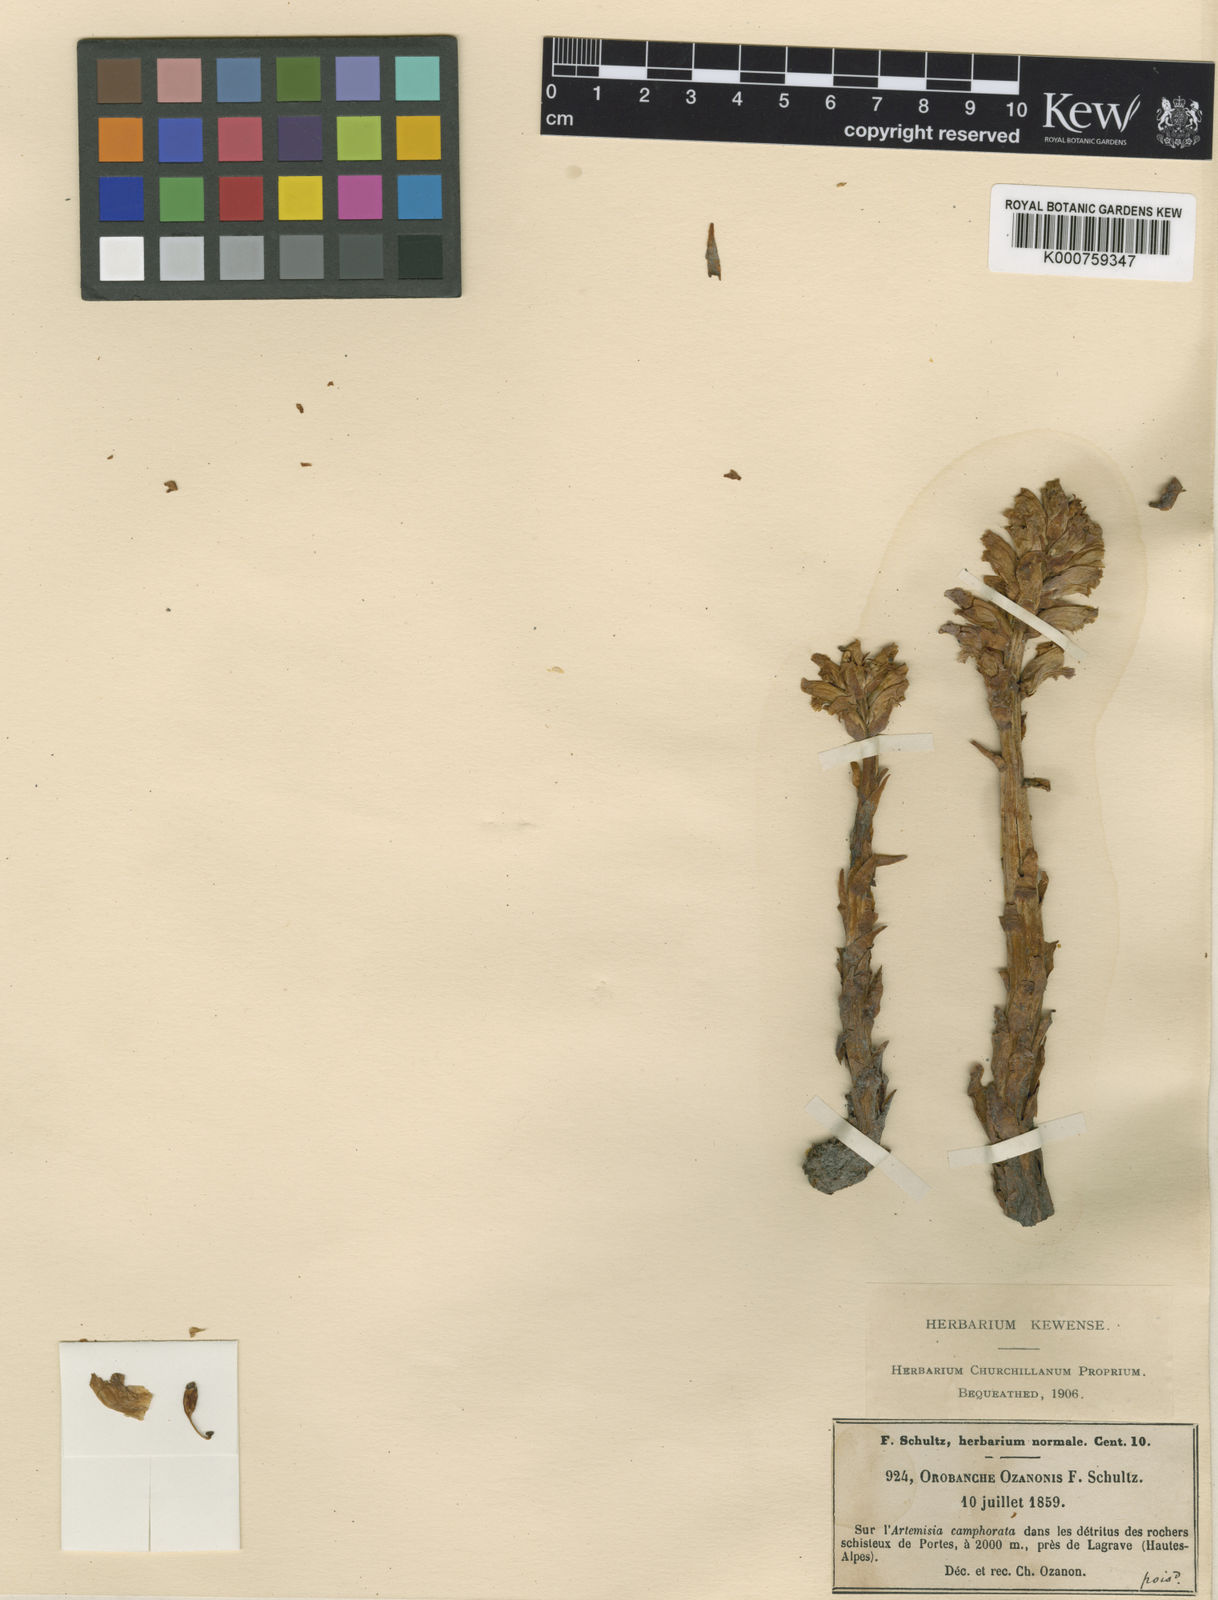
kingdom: Plantae
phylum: Tracheophyta
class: Magnoliopsida
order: Lamiales
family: Orobanchaceae
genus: Orobanche
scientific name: Orobanche
